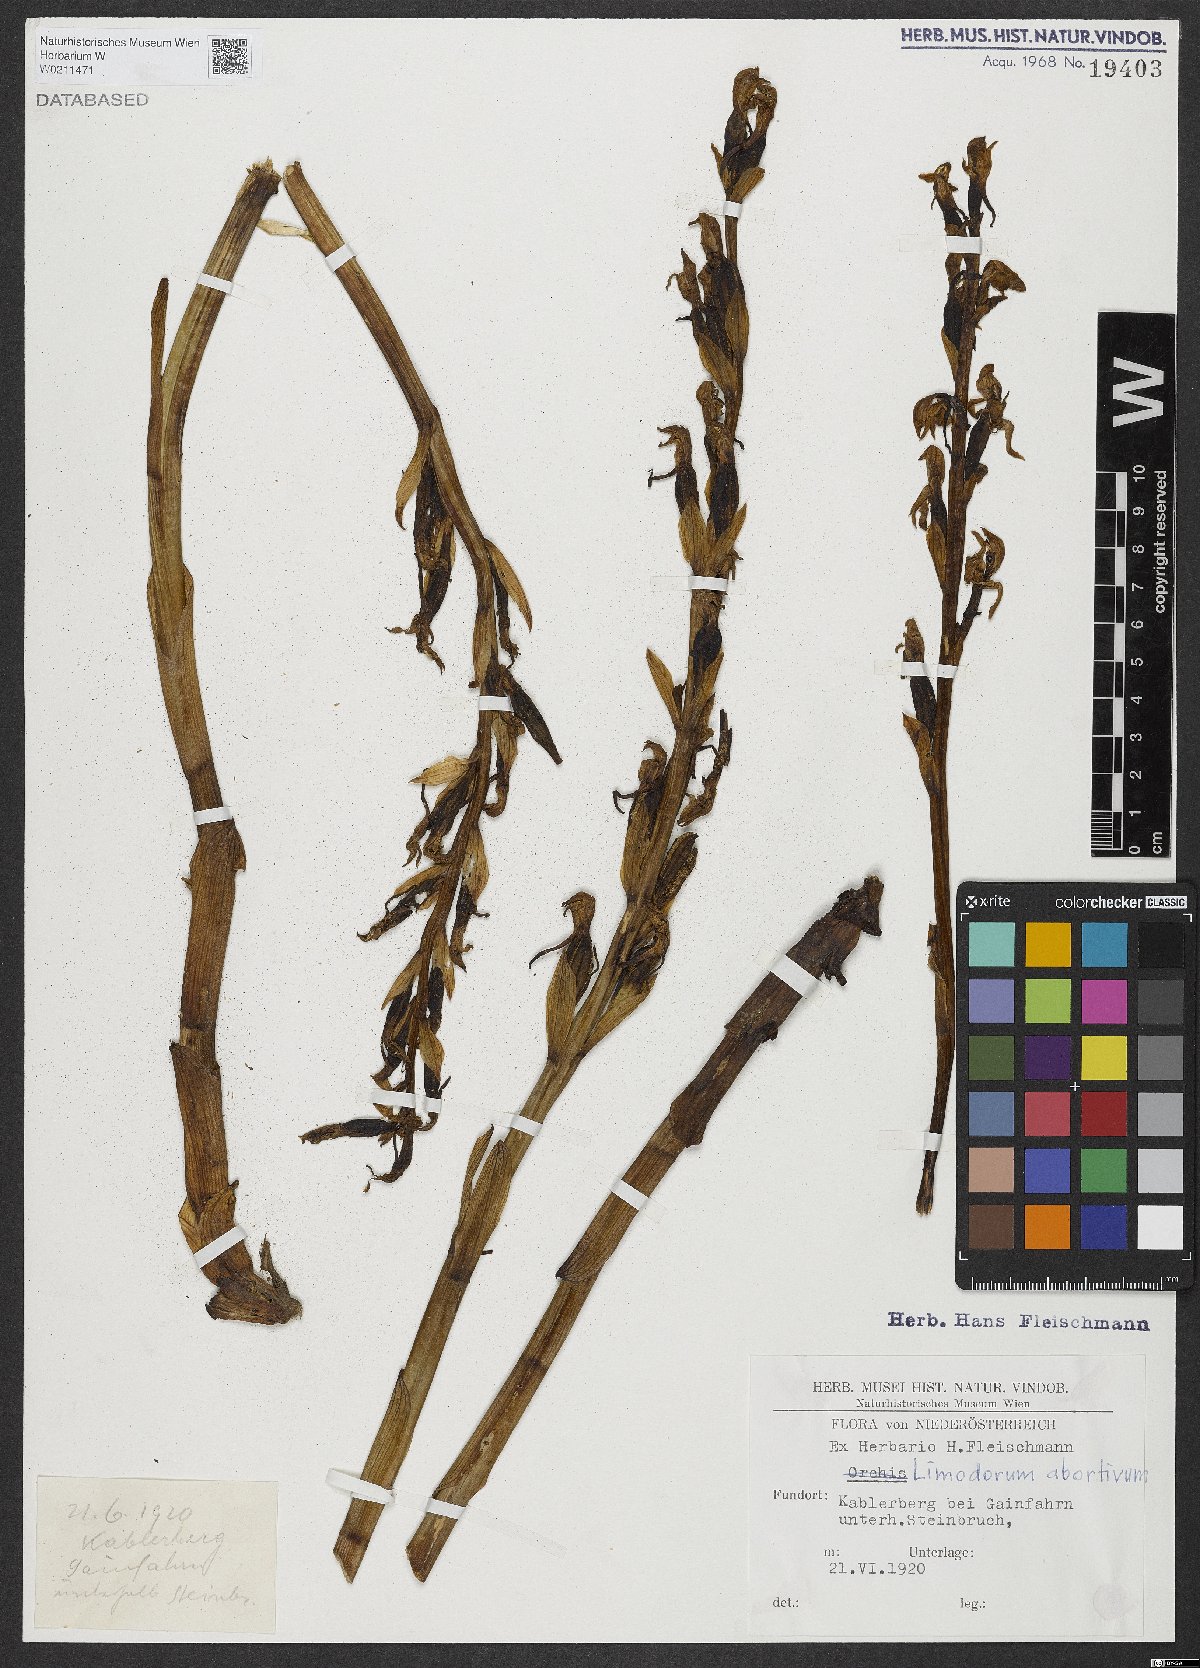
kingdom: Plantae
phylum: Tracheophyta
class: Liliopsida
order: Asparagales
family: Orchidaceae
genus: Limodorum
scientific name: Limodorum abortivum
